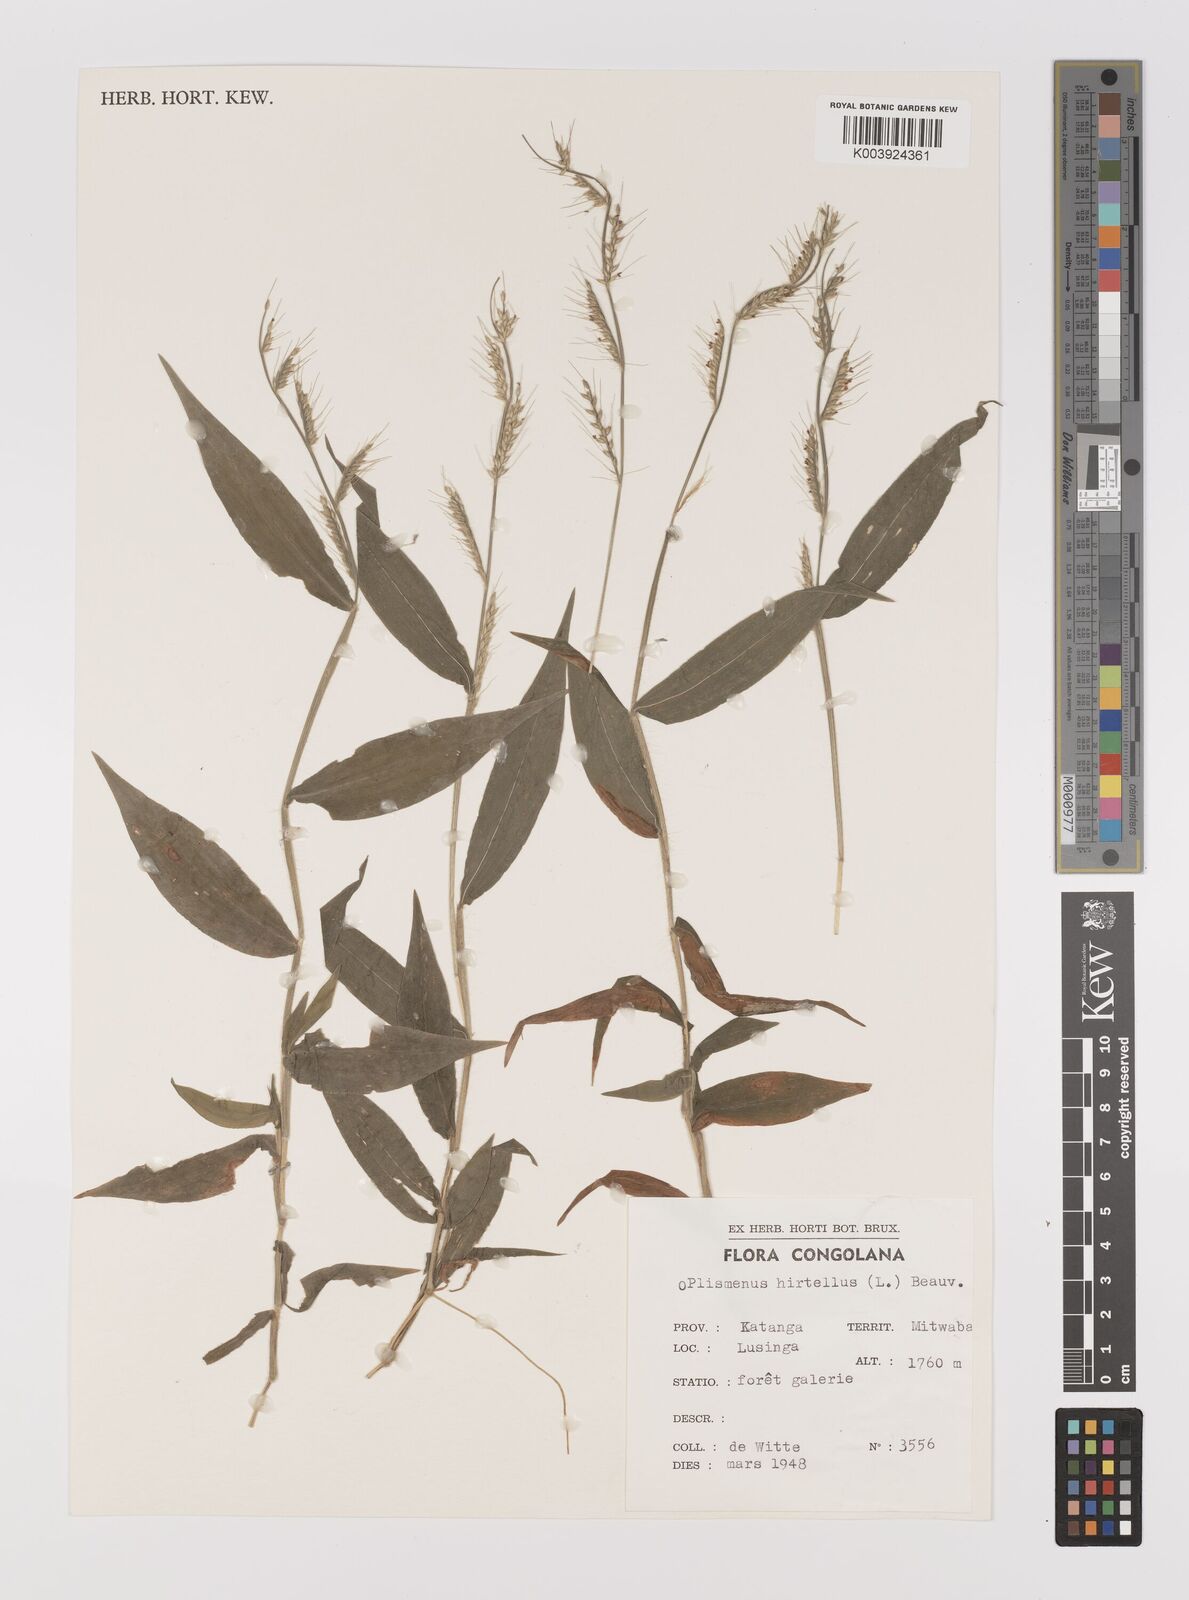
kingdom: Plantae
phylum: Tracheophyta
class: Liliopsida
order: Poales
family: Poaceae
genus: Oplismenus
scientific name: Oplismenus hirtellus
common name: Basketgrass
